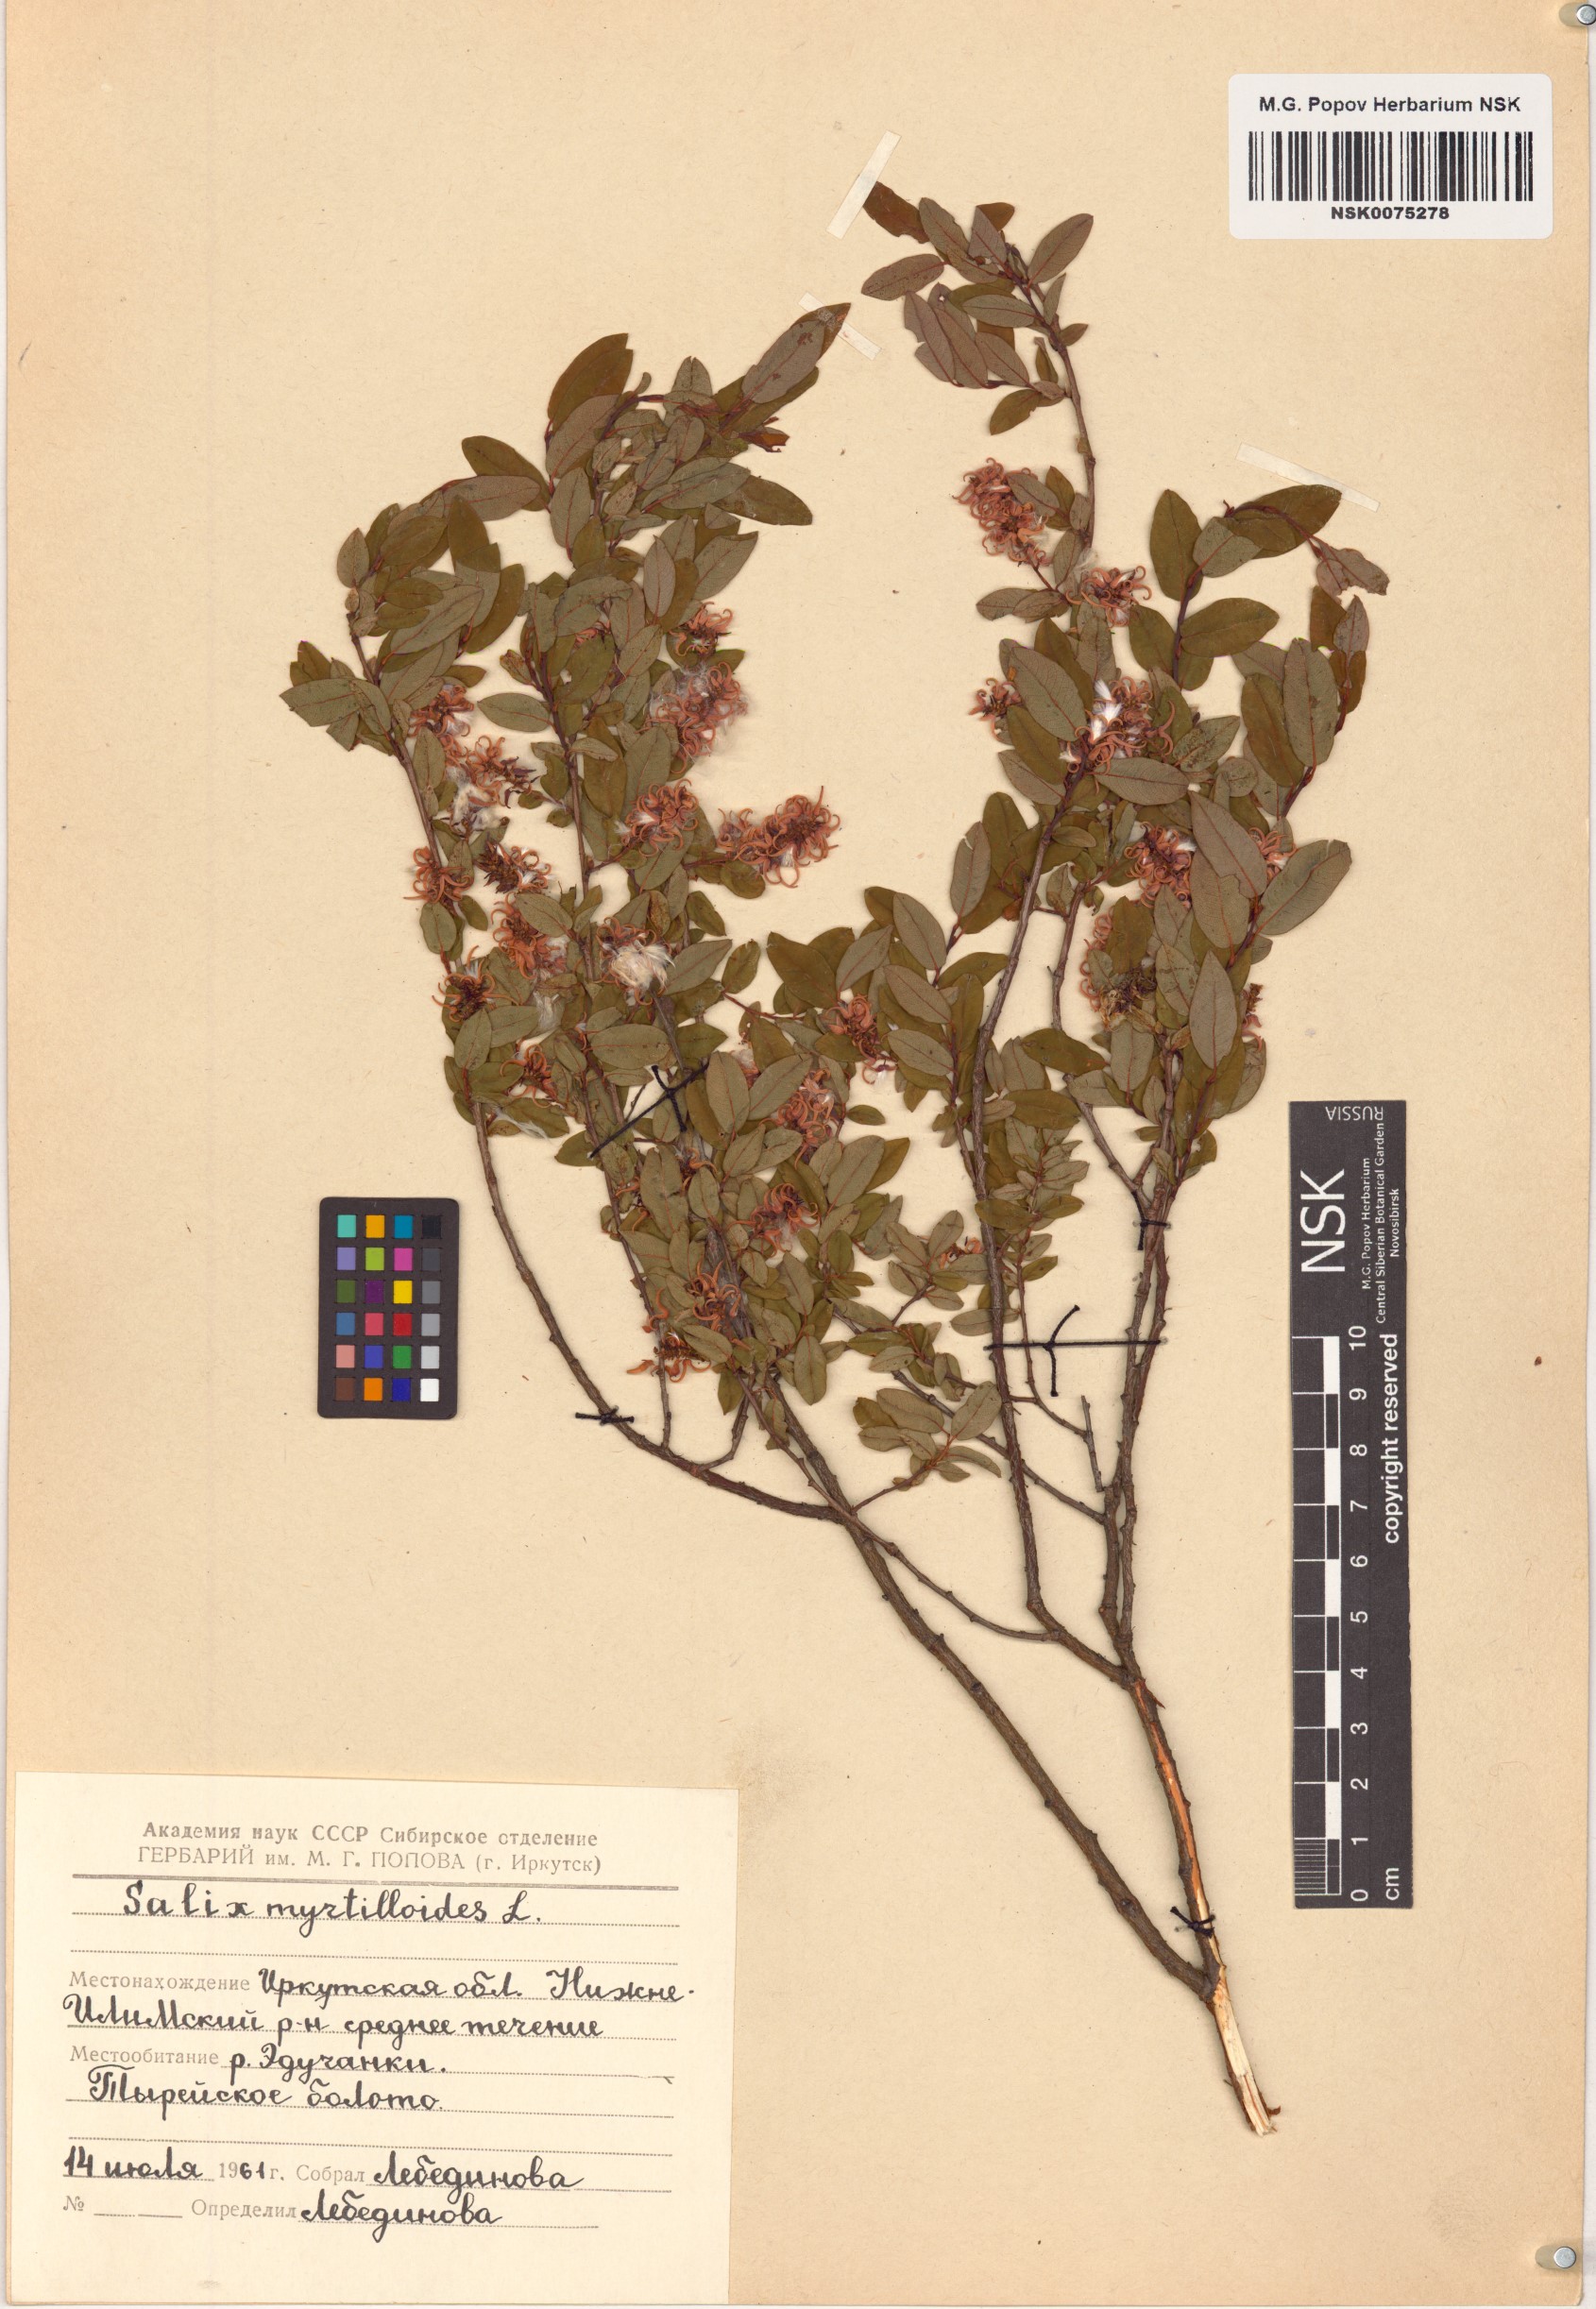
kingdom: Plantae
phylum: Tracheophyta
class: Magnoliopsida
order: Malpighiales
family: Salicaceae
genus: Salix
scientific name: Salix myrtilloides
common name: Myrtle-leaved willow
